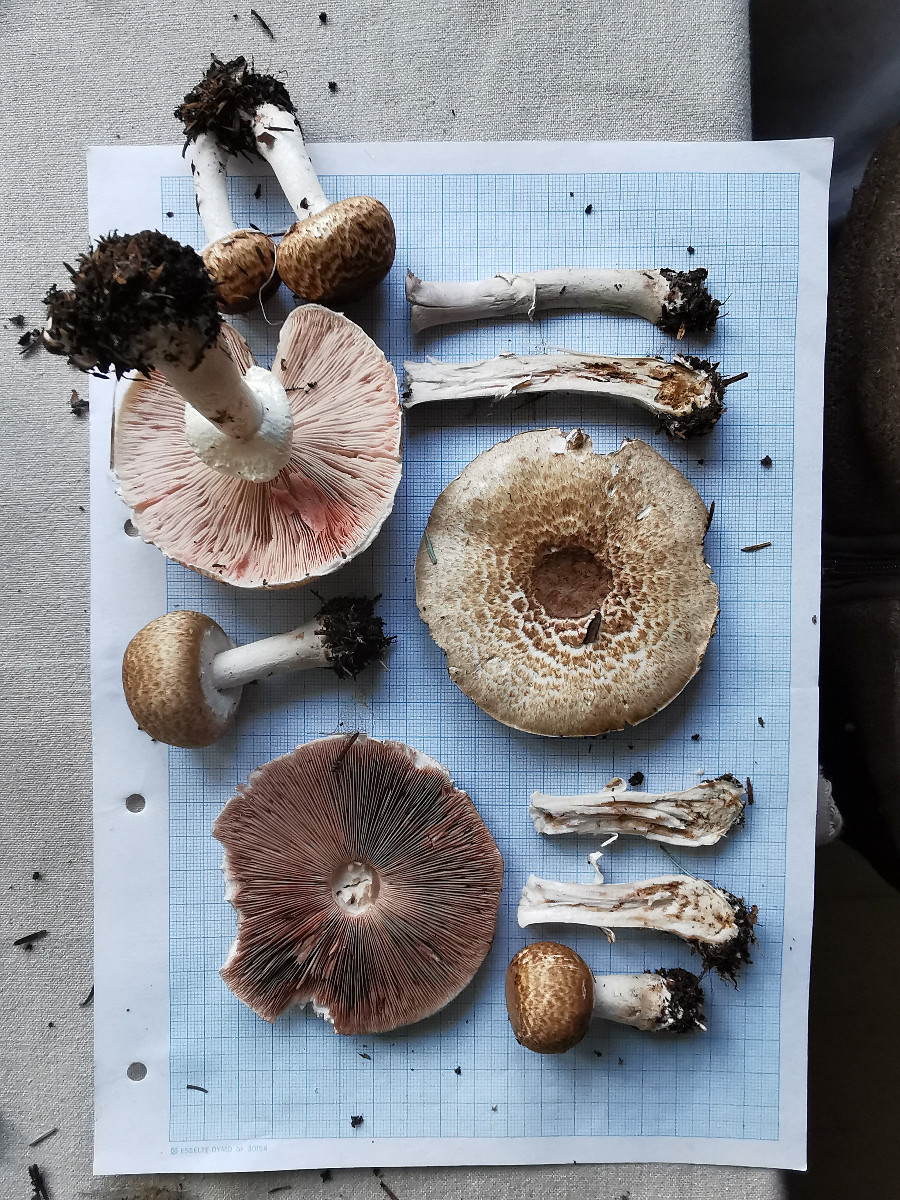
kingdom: Fungi
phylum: Basidiomycota
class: Agaricomycetes
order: Agaricales
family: Agaricaceae
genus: Agaricus
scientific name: Agaricus
